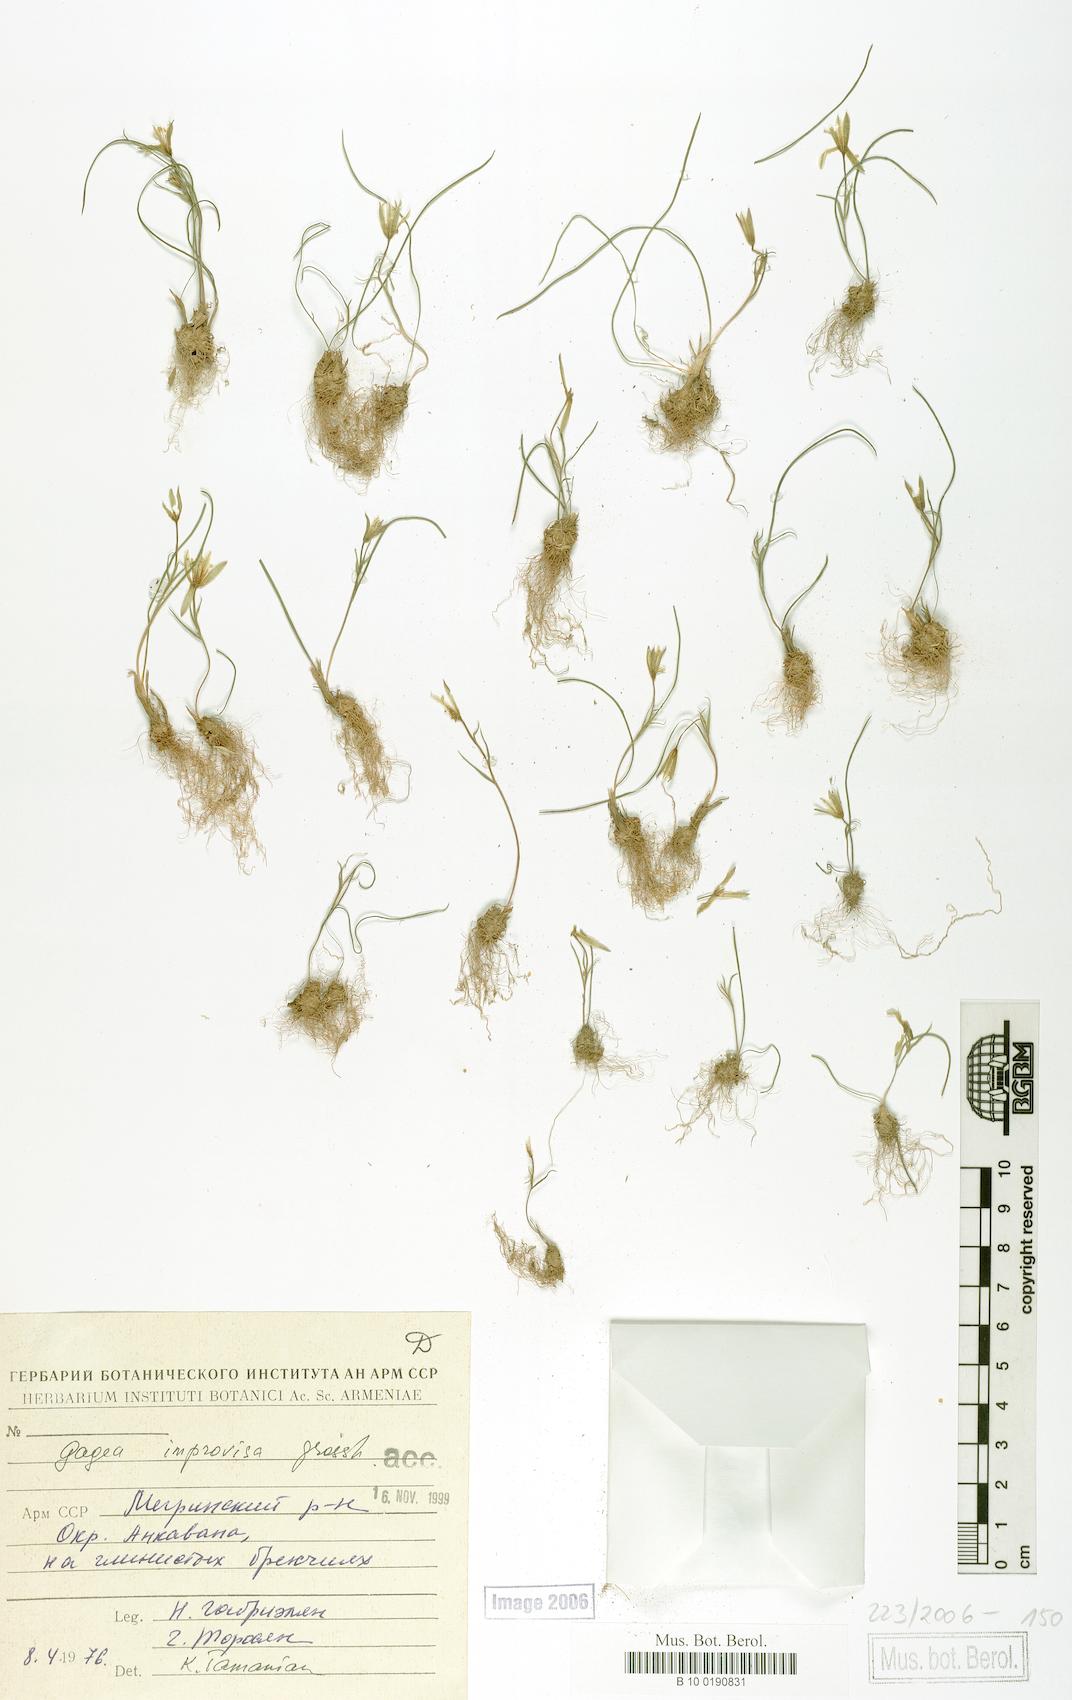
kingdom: Plantae
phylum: Tracheophyta
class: Liliopsida
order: Liliales
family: Liliaceae
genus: Gagea
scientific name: Gagea chomutovae
